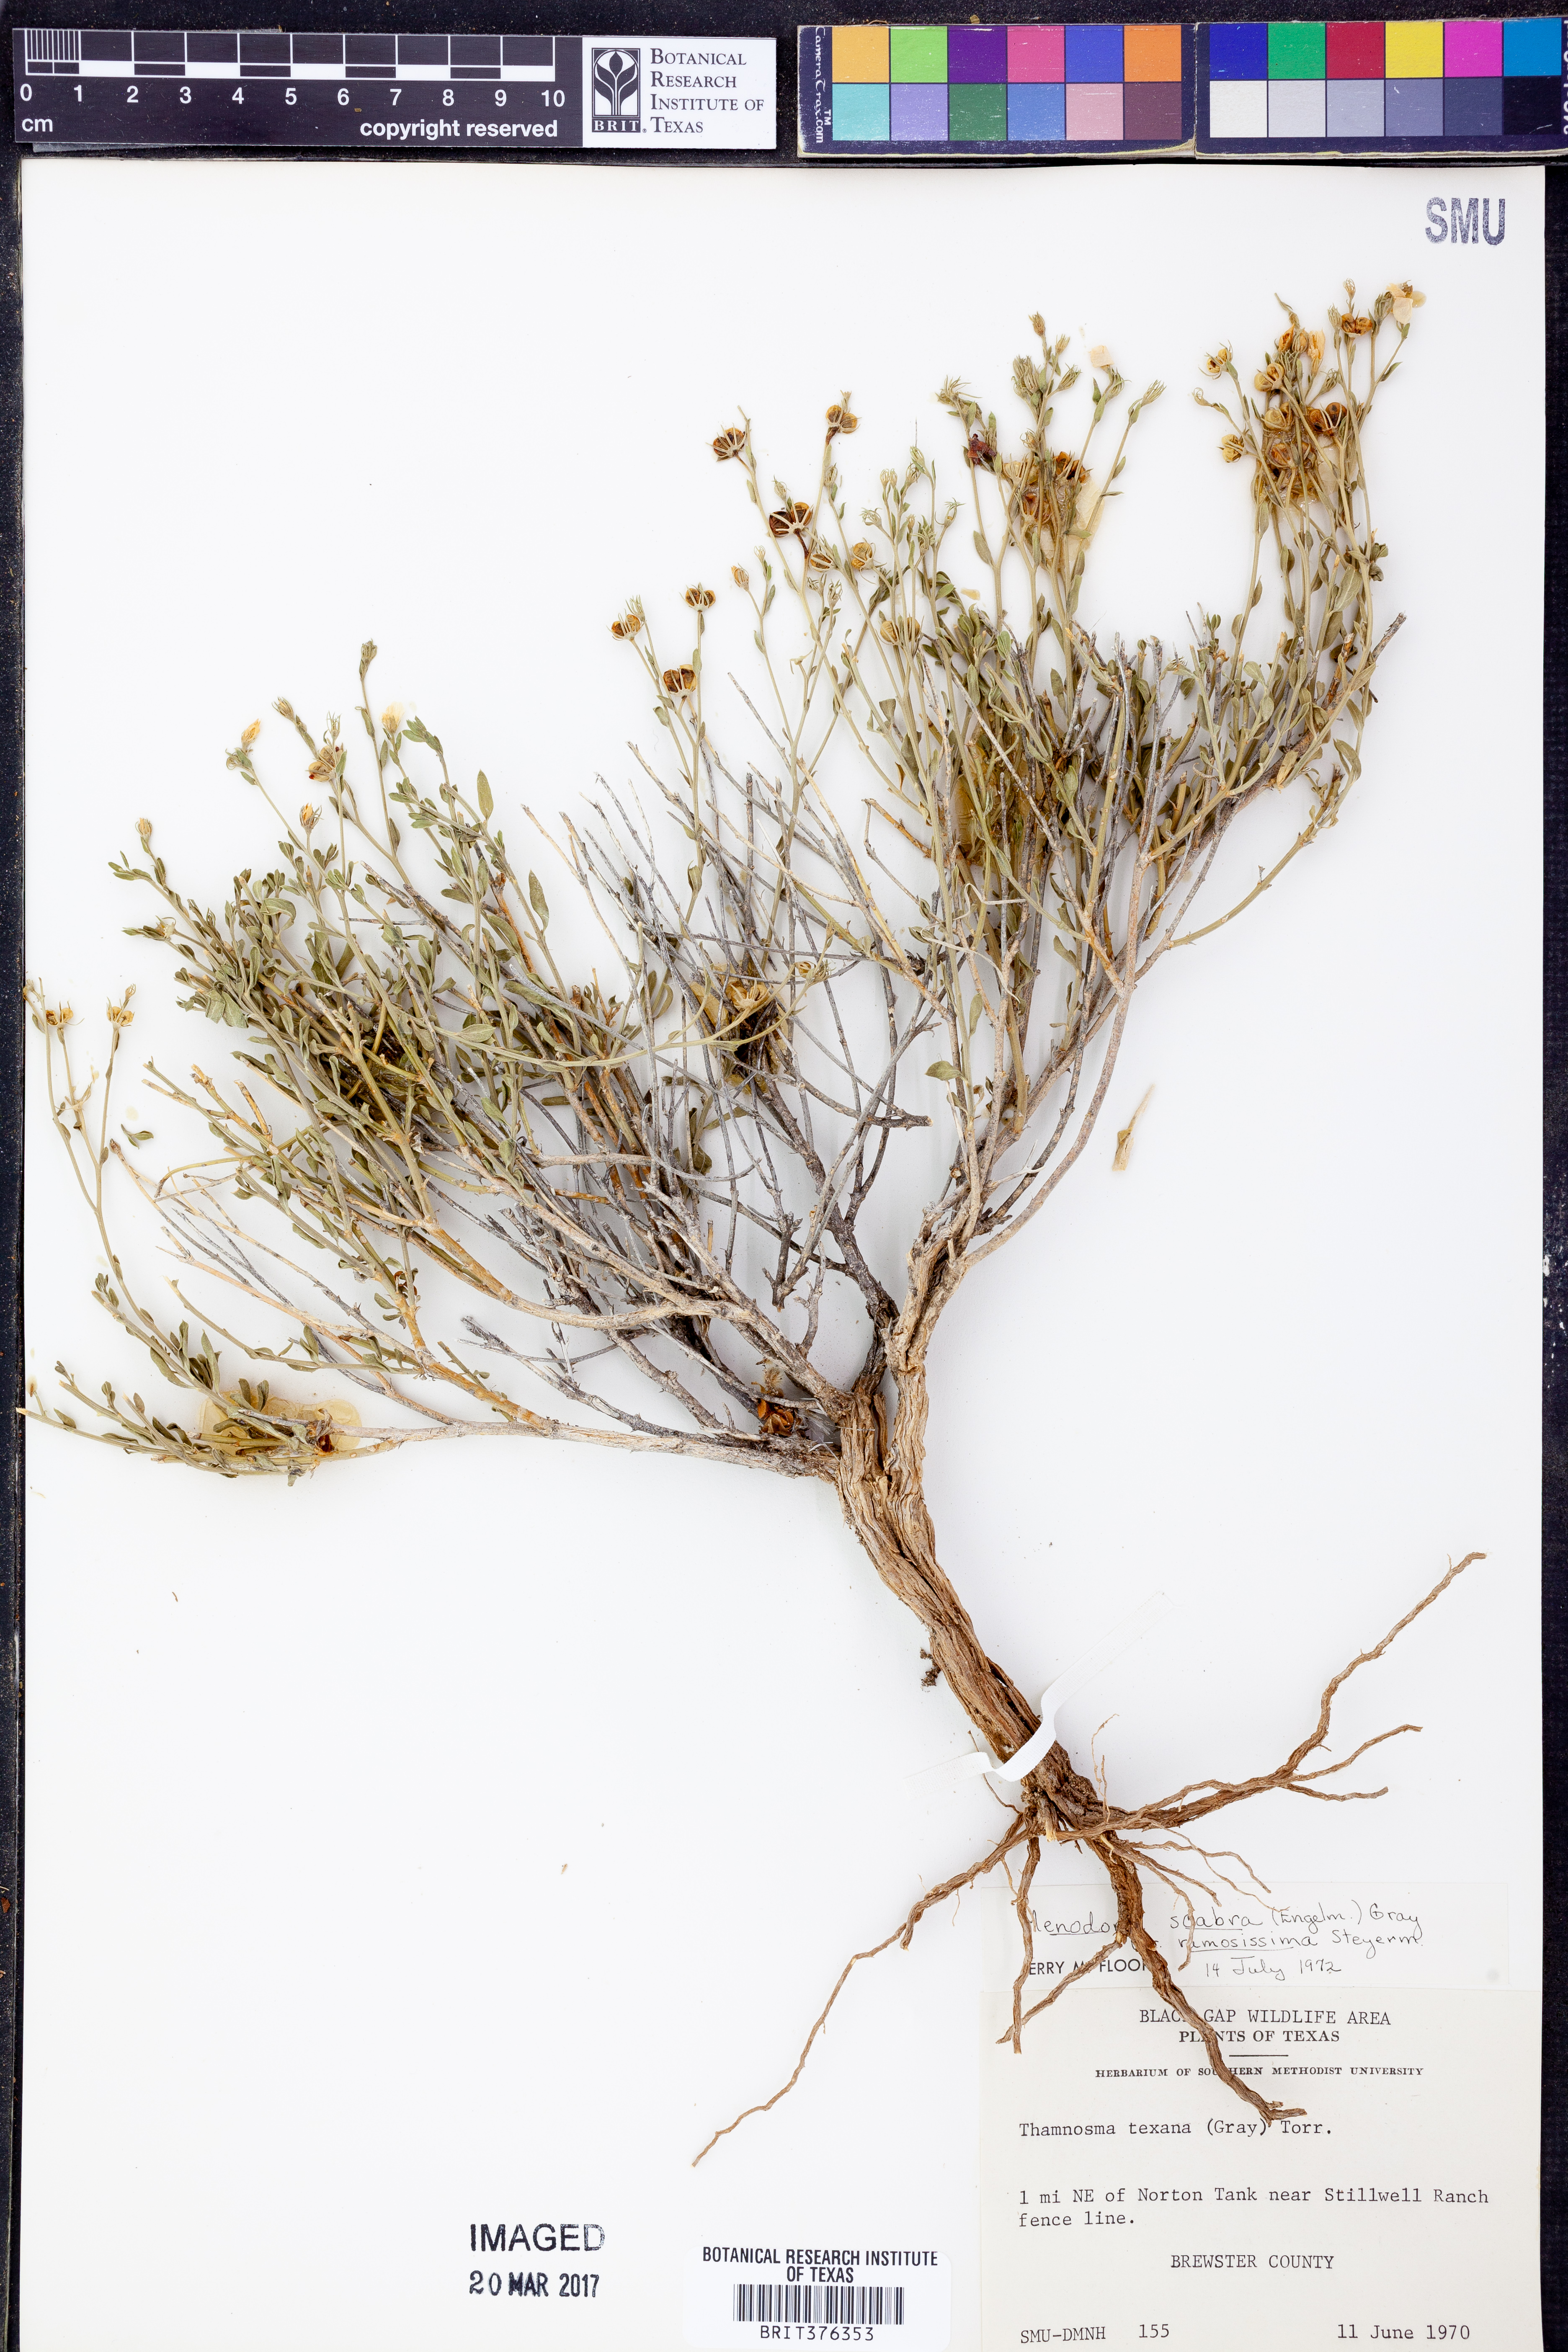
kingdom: Plantae
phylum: Tracheophyta
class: Magnoliopsida
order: Lamiales
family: Oleaceae
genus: Menodora
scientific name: Menodora scabra
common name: Rough menodora
